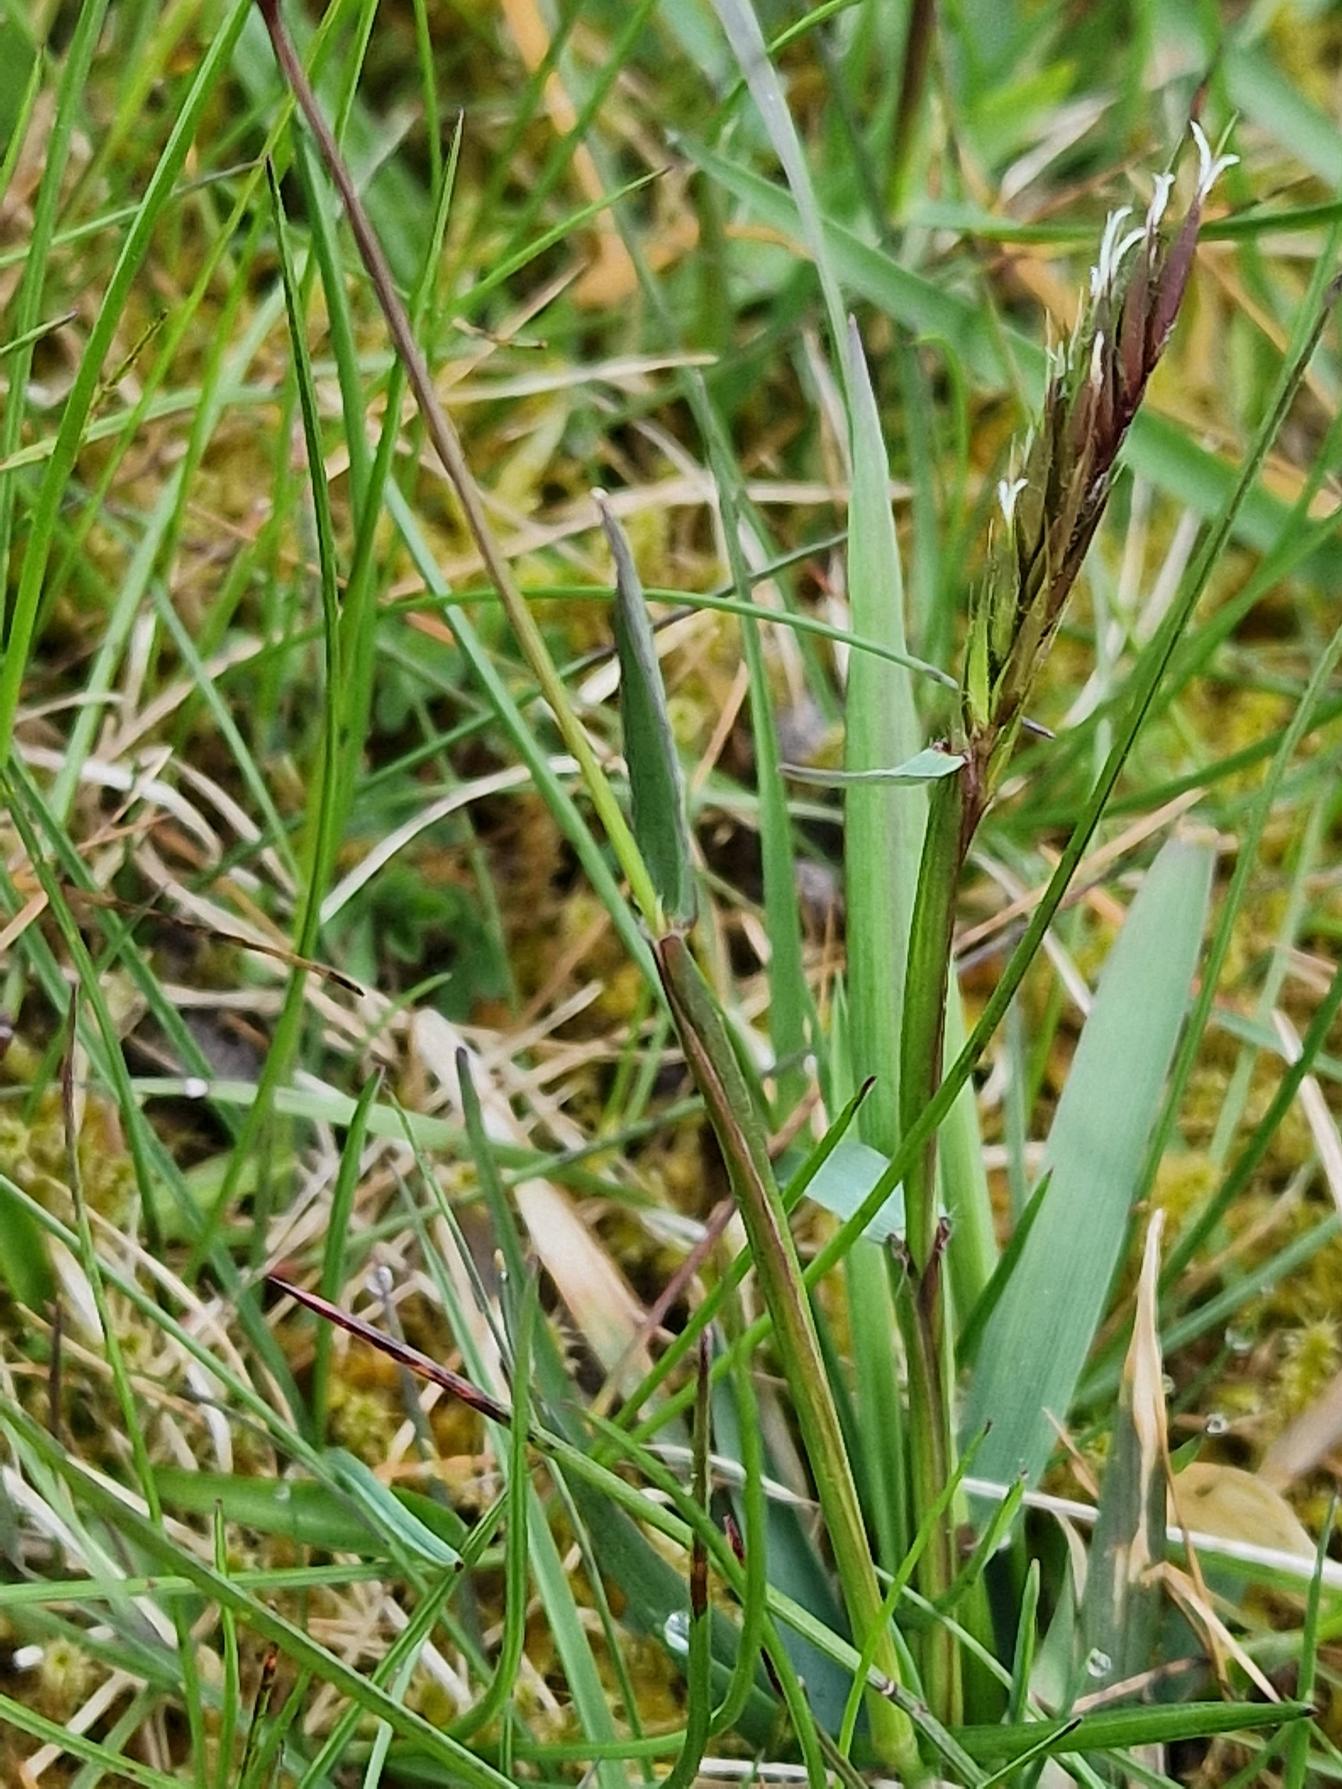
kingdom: Plantae
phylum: Tracheophyta
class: Liliopsida
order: Poales
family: Poaceae
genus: Anthoxanthum
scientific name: Anthoxanthum odoratum
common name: Vellugtende gulaks
